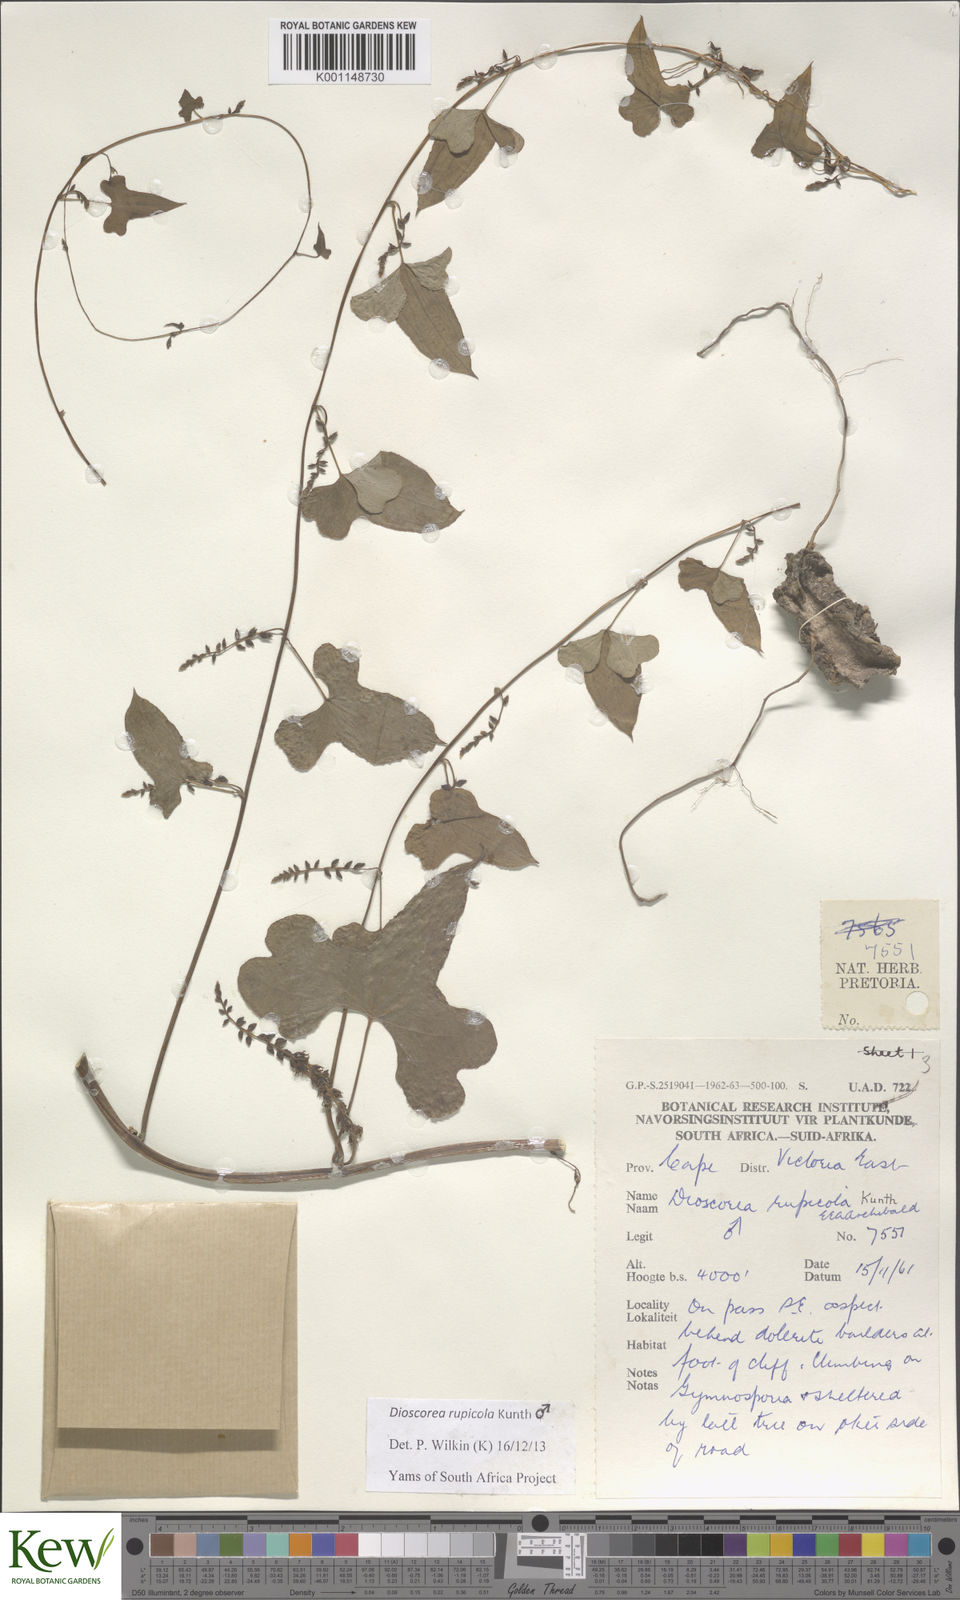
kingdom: Plantae
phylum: Tracheophyta
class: Liliopsida
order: Dioscoreales
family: Dioscoreaceae
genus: Dioscorea
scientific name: Dioscorea rupicola
